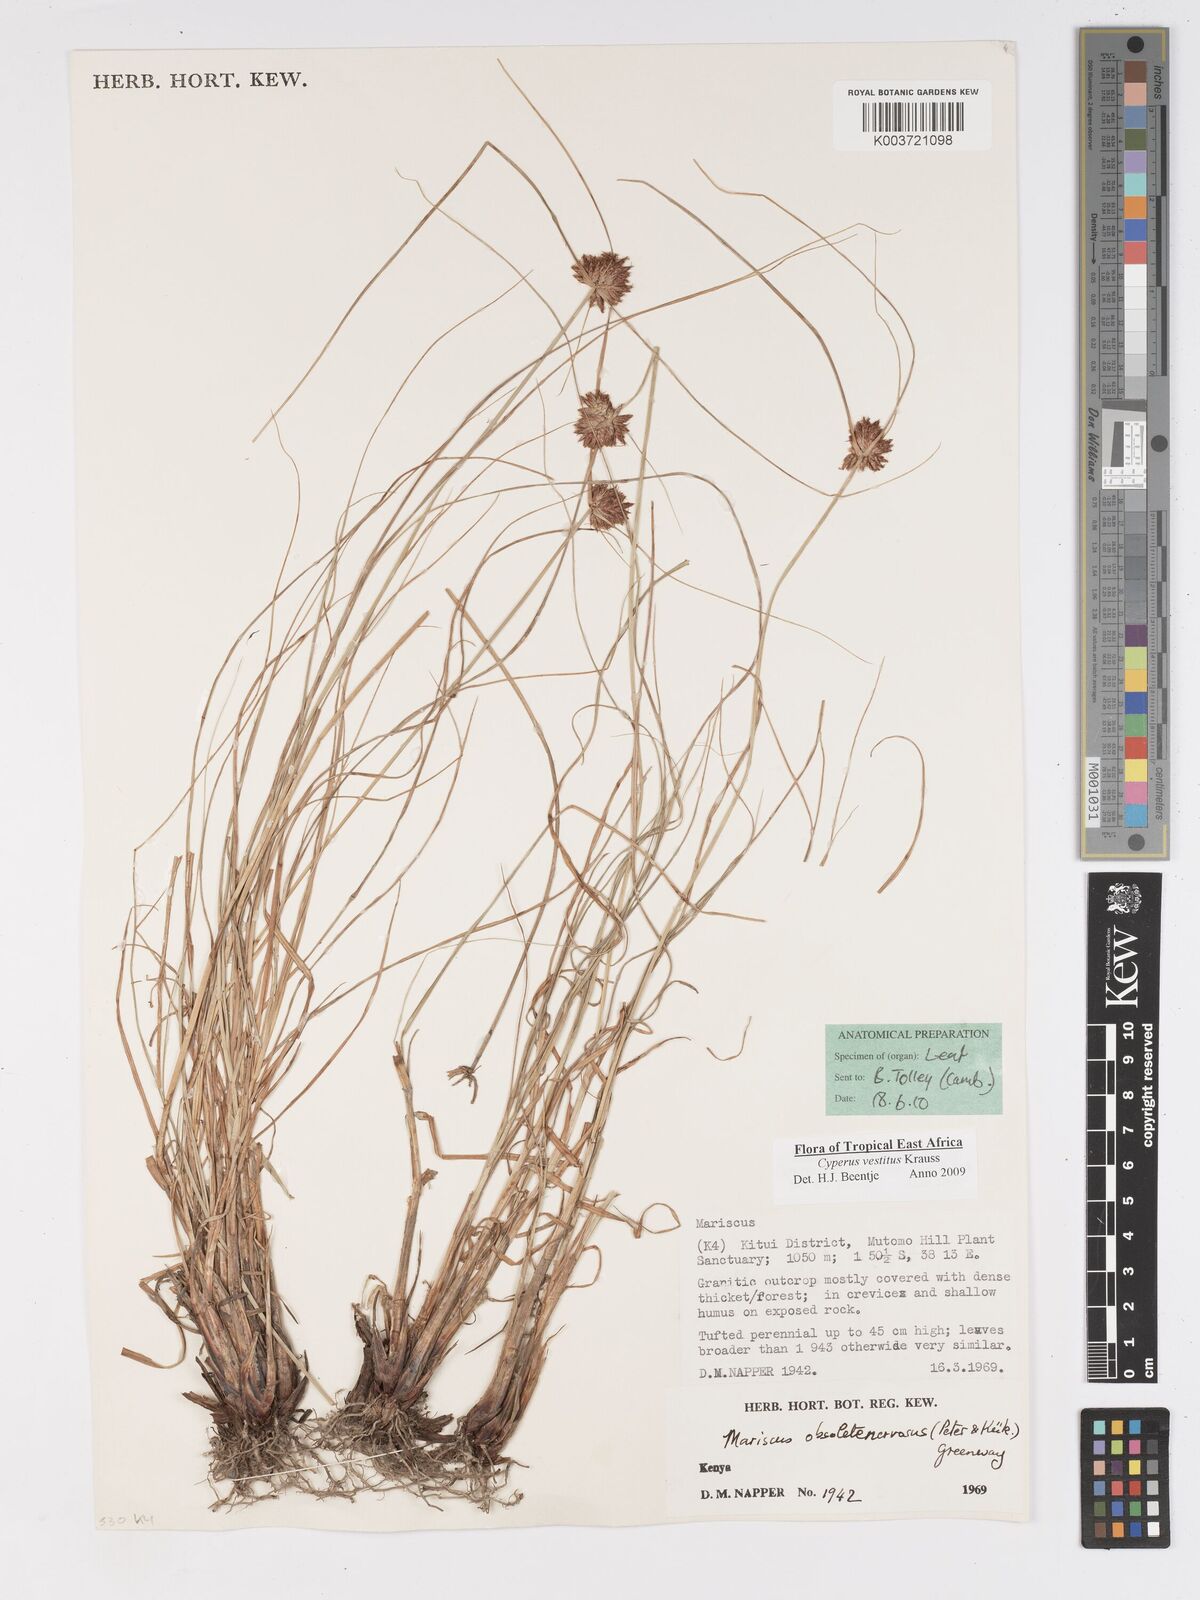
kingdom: Plantae
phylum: Tracheophyta
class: Liliopsida
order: Poales
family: Cyperaceae
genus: Cyperus
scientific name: Cyperus vestitus
